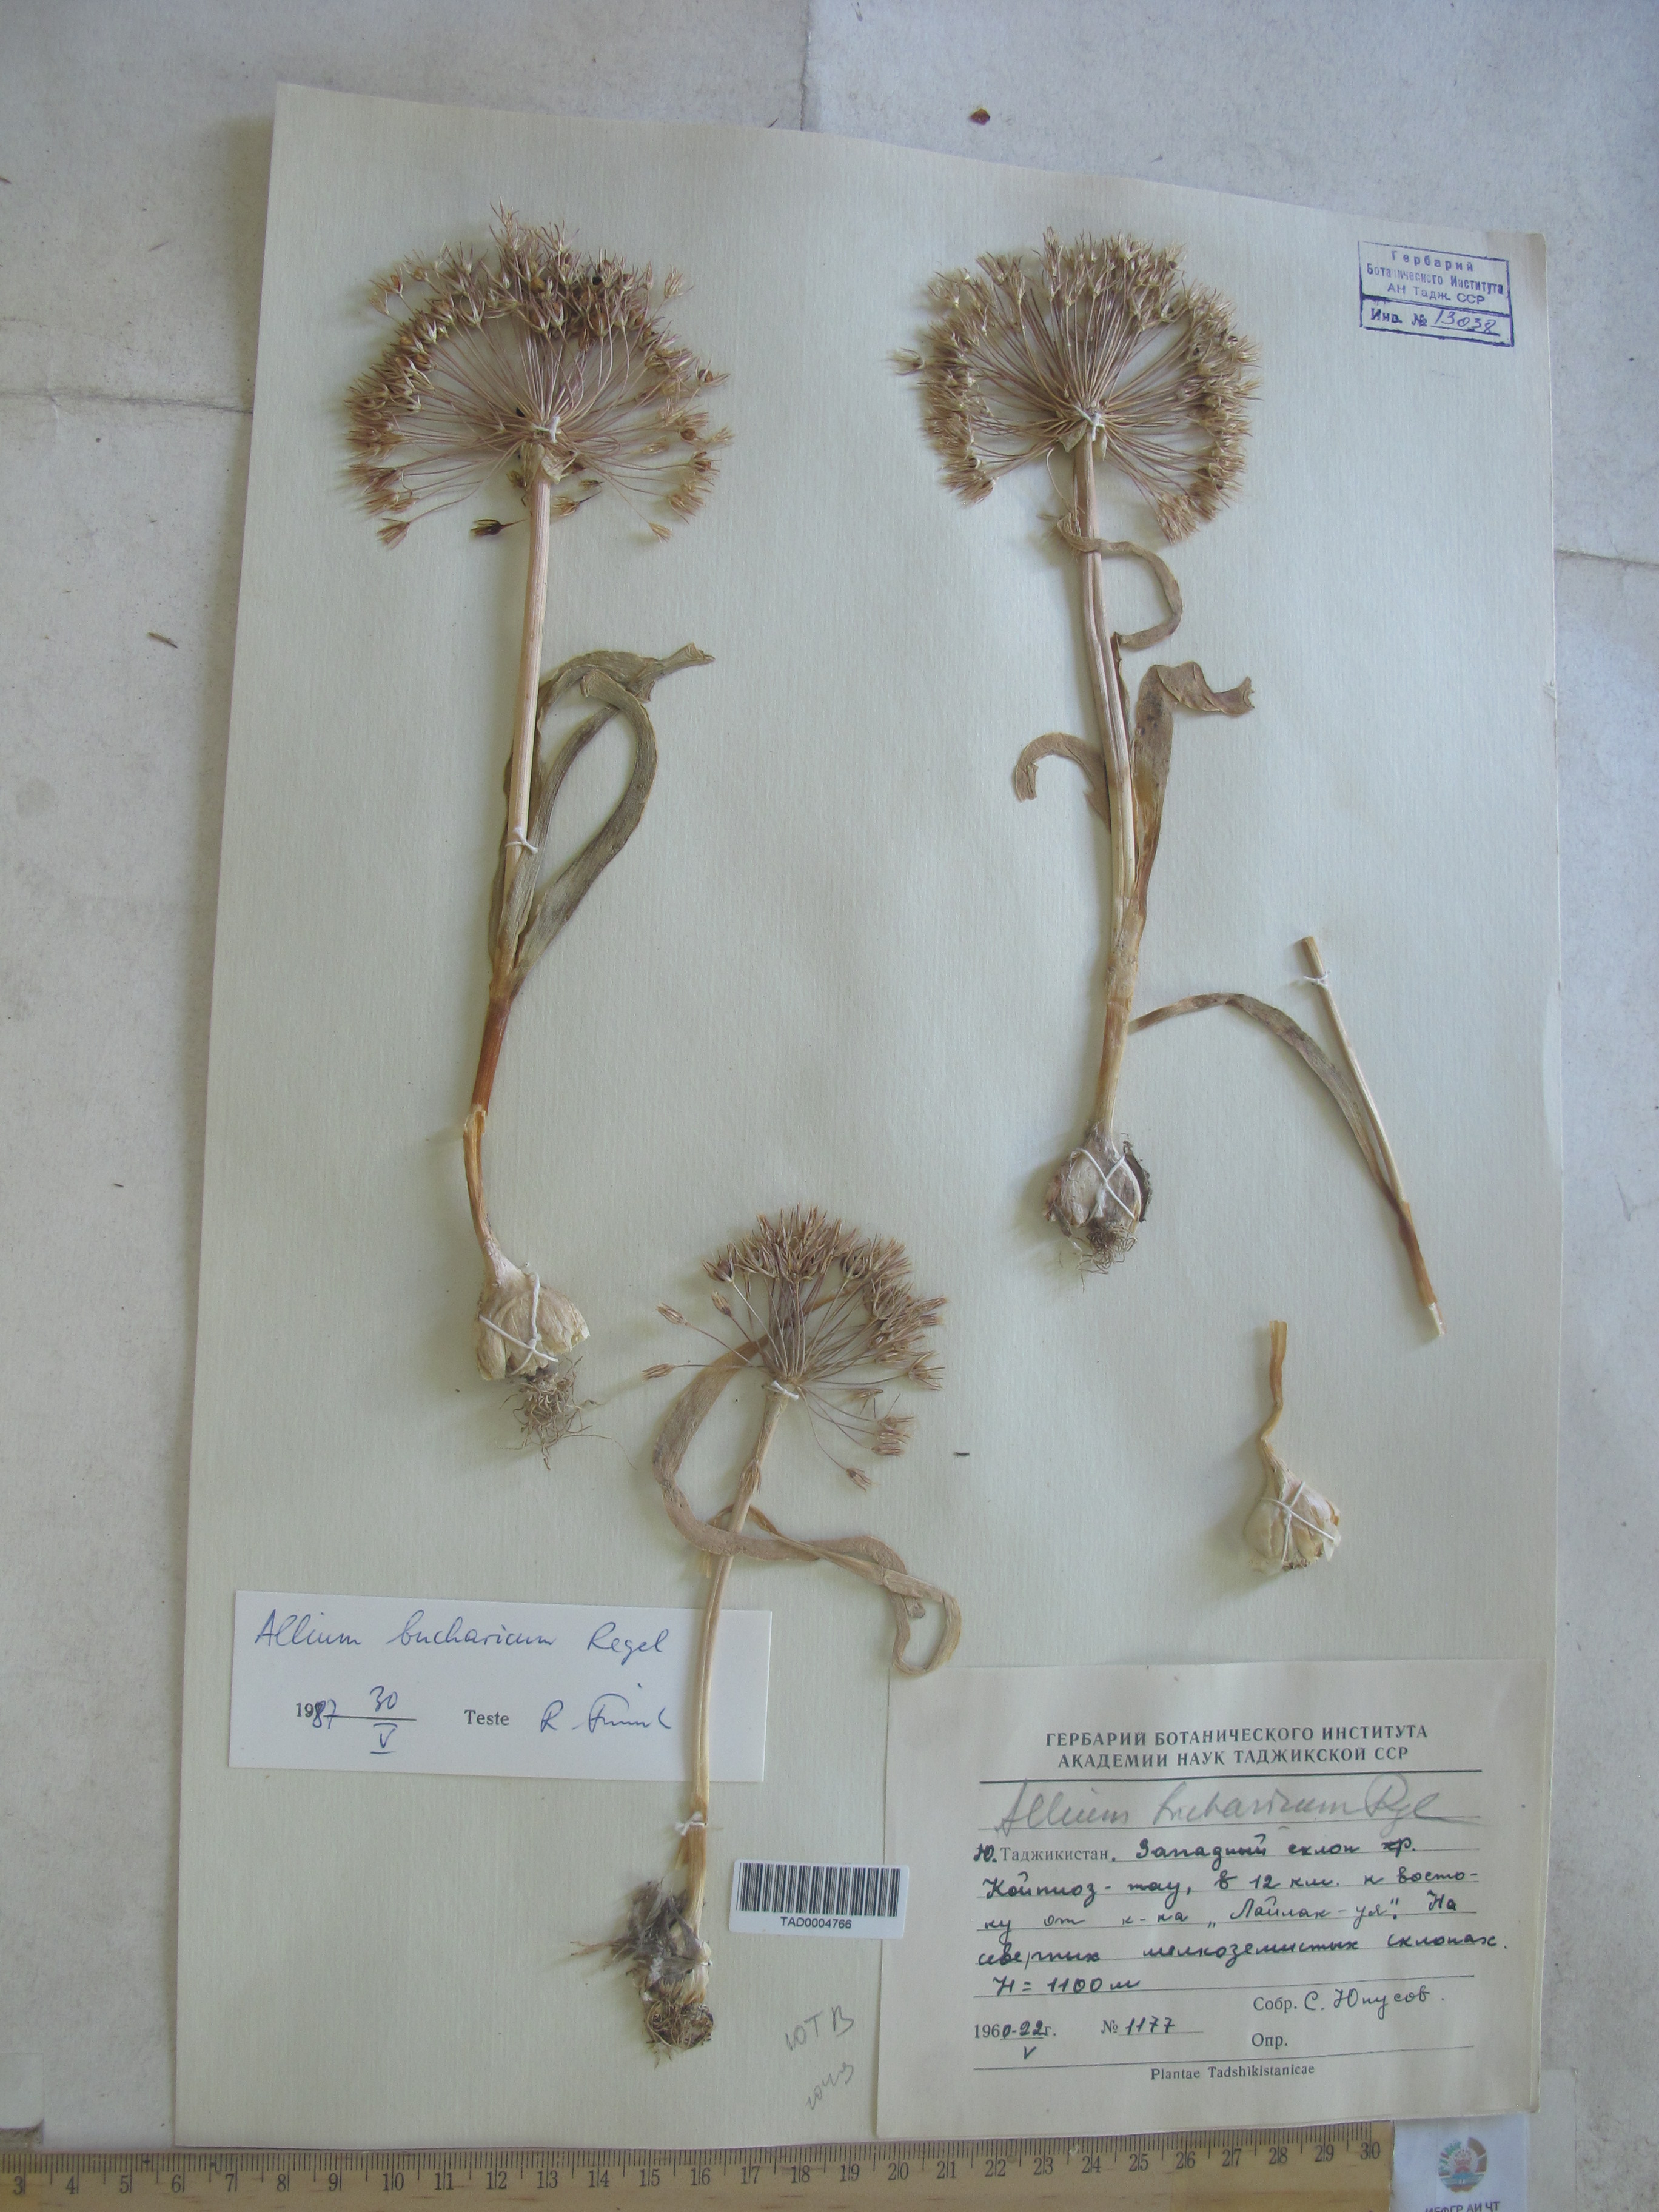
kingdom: Plantae
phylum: Tracheophyta
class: Liliopsida
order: Asparagales
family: Amaryllidaceae
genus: Allium
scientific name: Allium bucharicum
